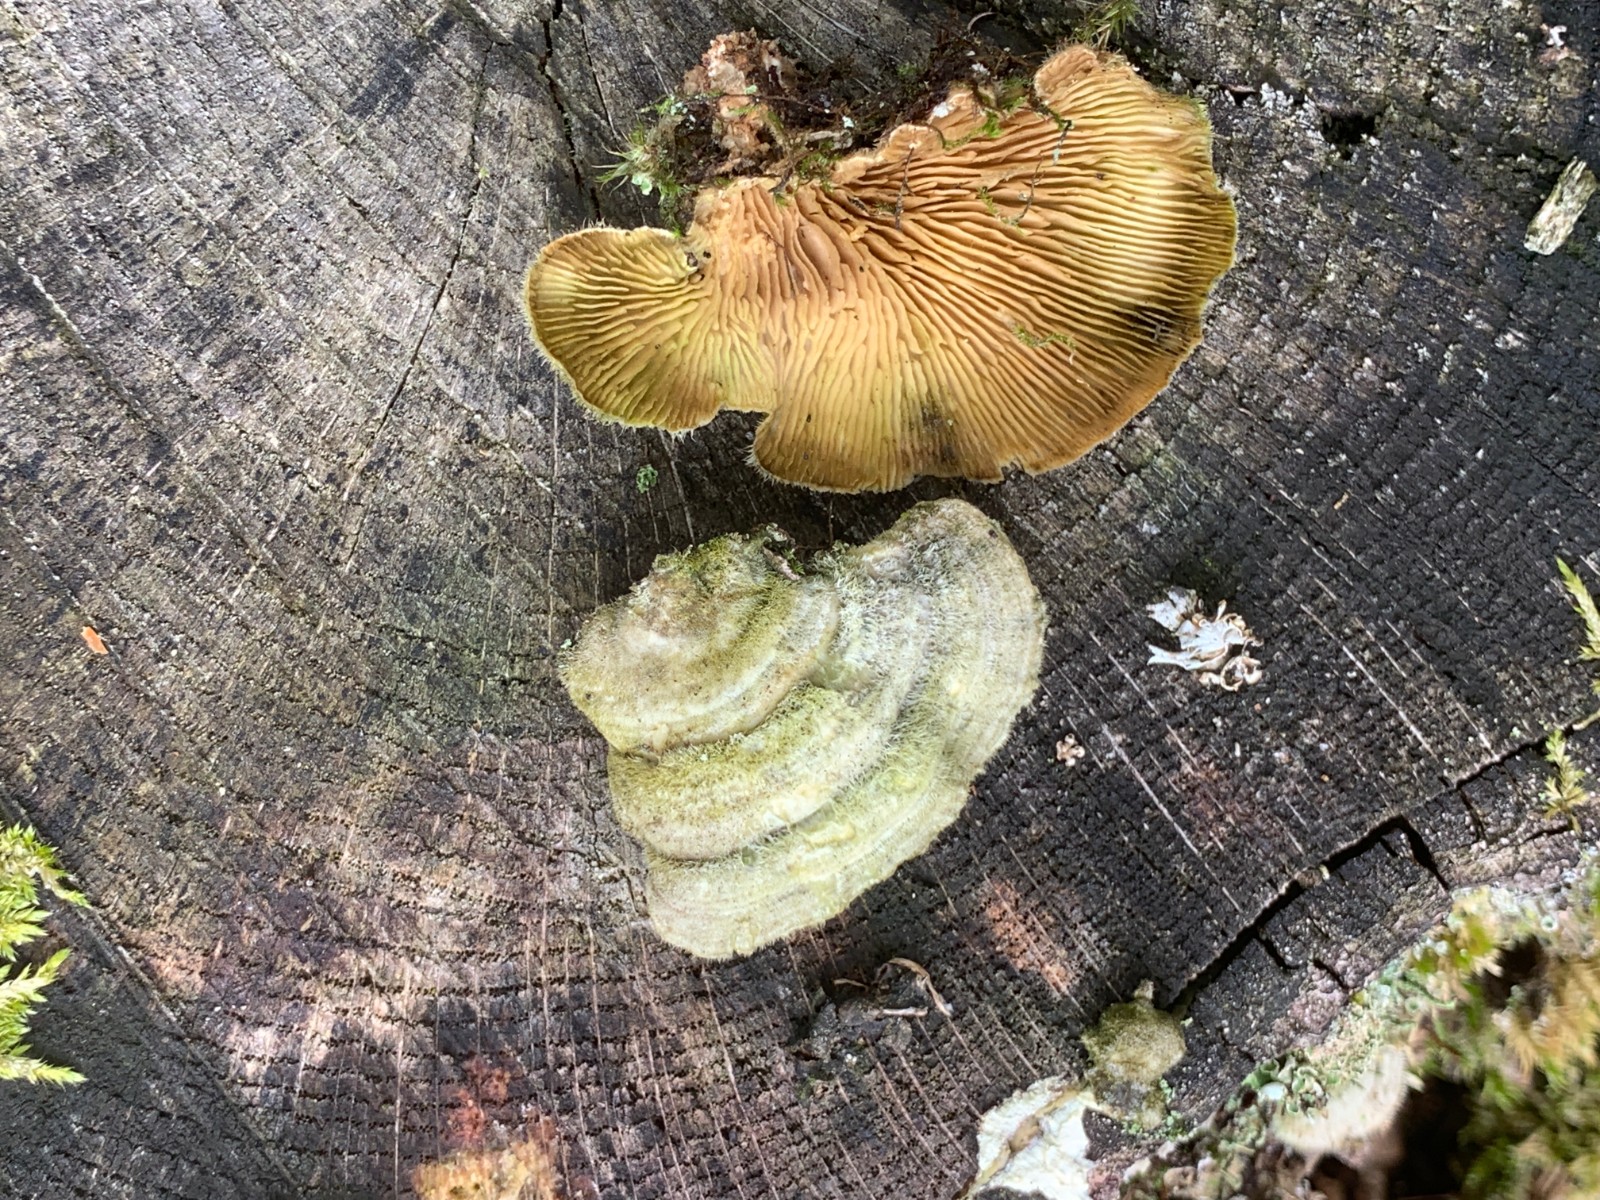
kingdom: Fungi
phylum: Basidiomycota
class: Agaricomycetes
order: Polyporales
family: Polyporaceae
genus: Lenzites
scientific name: Lenzites betulinus
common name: birke-læderporesvamp
